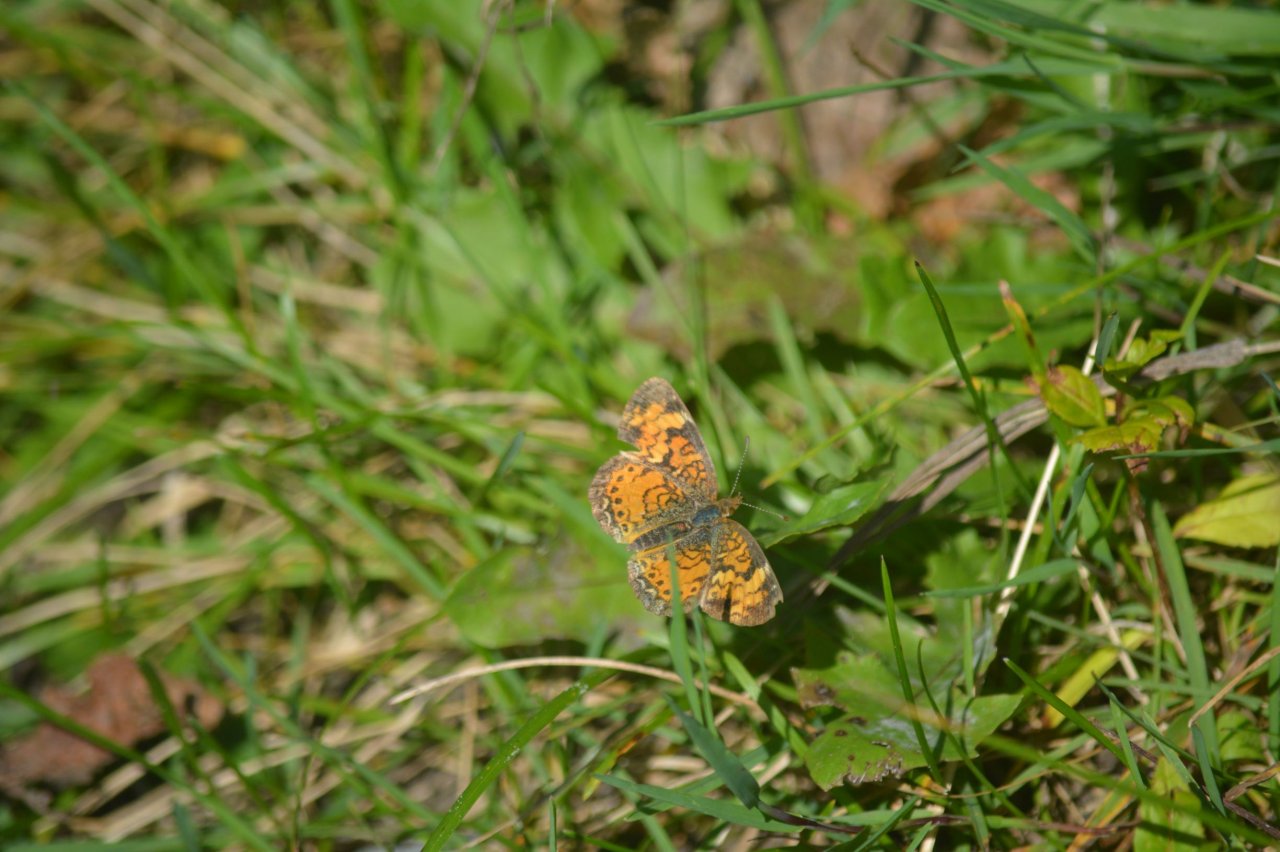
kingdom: Animalia
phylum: Arthropoda
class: Insecta
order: Lepidoptera
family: Nymphalidae
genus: Phyciodes
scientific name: Phyciodes tharos
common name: Pearl Crescent
